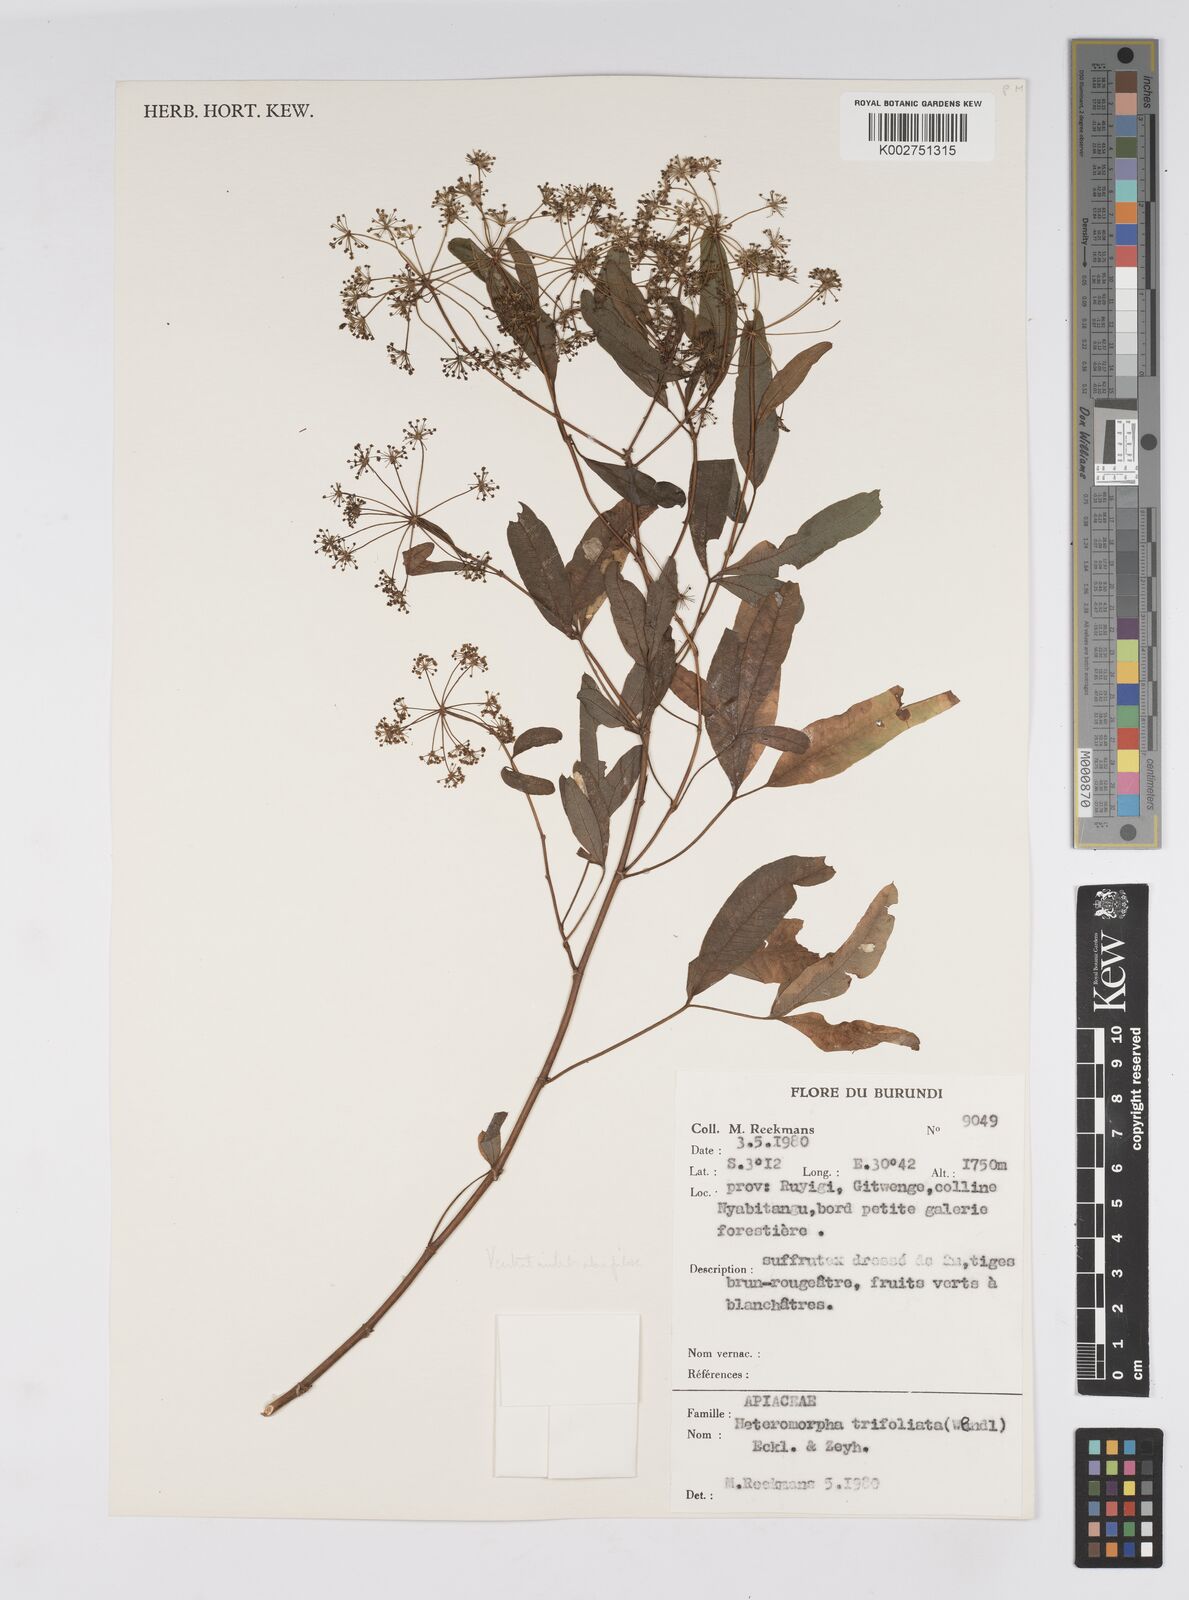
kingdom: Plantae
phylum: Tracheophyta
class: Magnoliopsida
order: Apiales
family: Apiaceae
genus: Heteromorpha
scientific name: Heteromorpha arborescens
